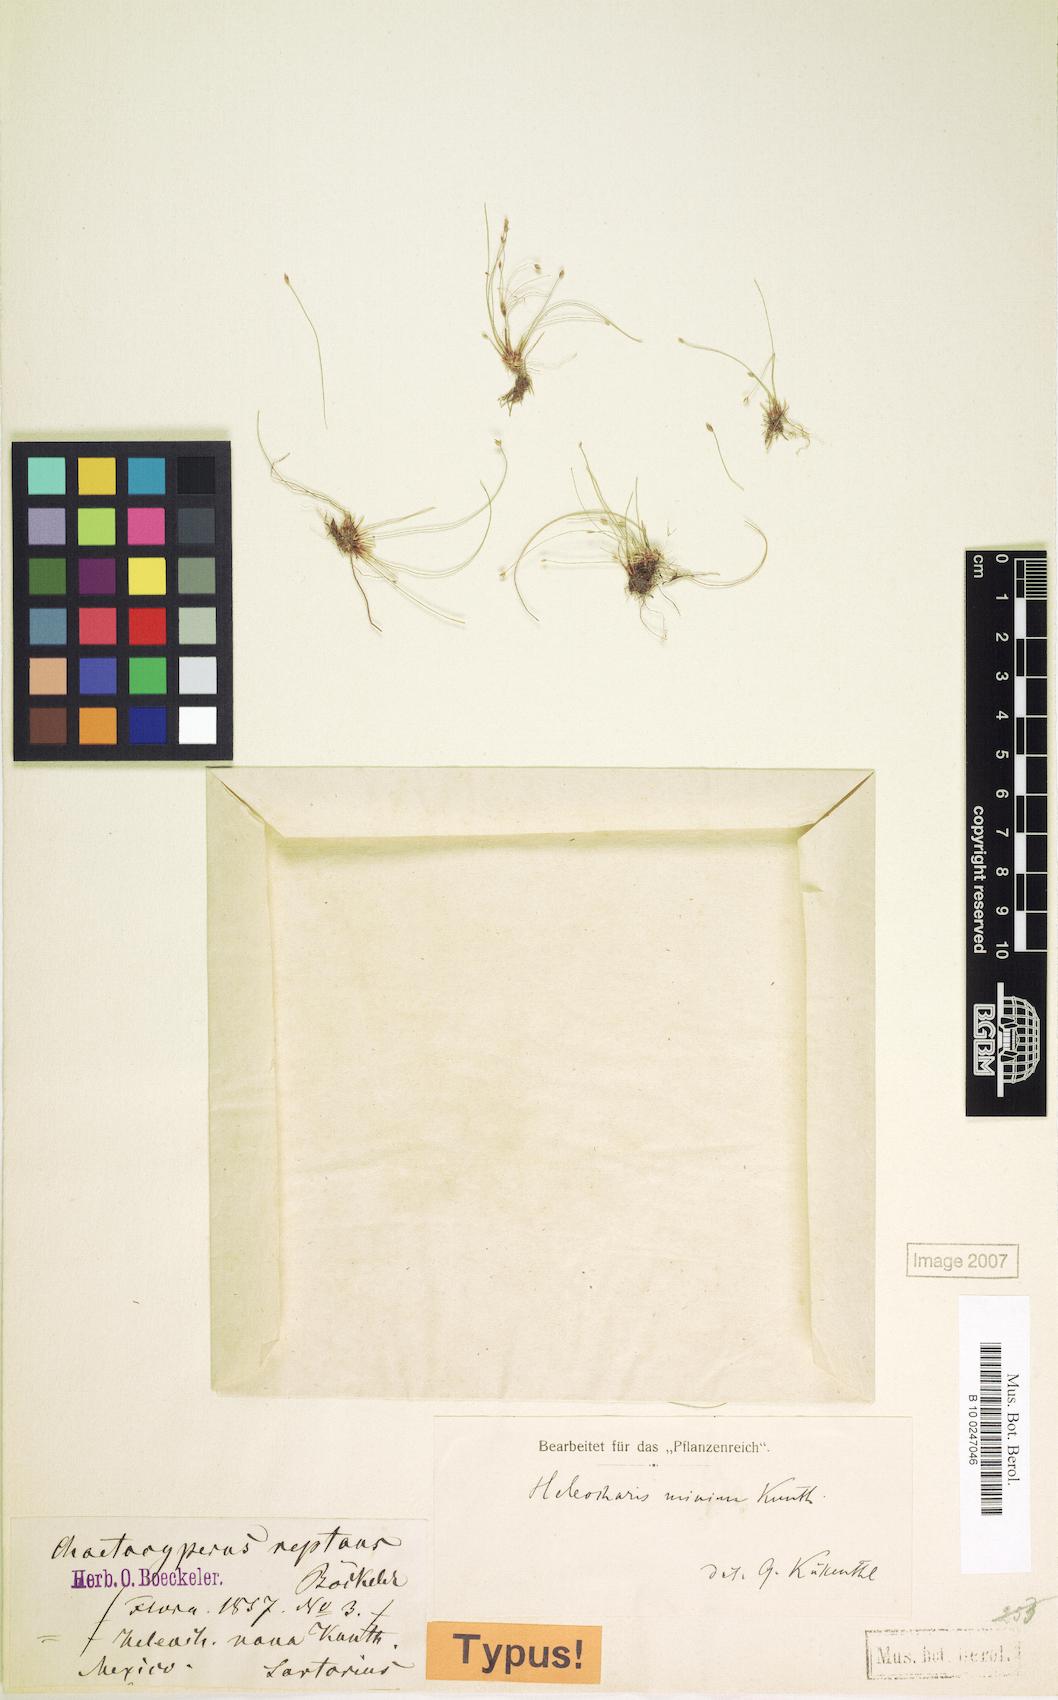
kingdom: Plantae
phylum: Tracheophyta
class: Liliopsida
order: Poales
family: Cyperaceae
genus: Eleocharis
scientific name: Eleocharis minima
